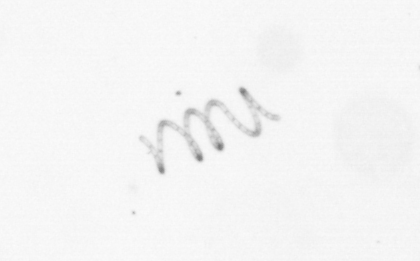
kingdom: Chromista
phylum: Ochrophyta
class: Bacillariophyceae
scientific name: Bacillariophyceae
